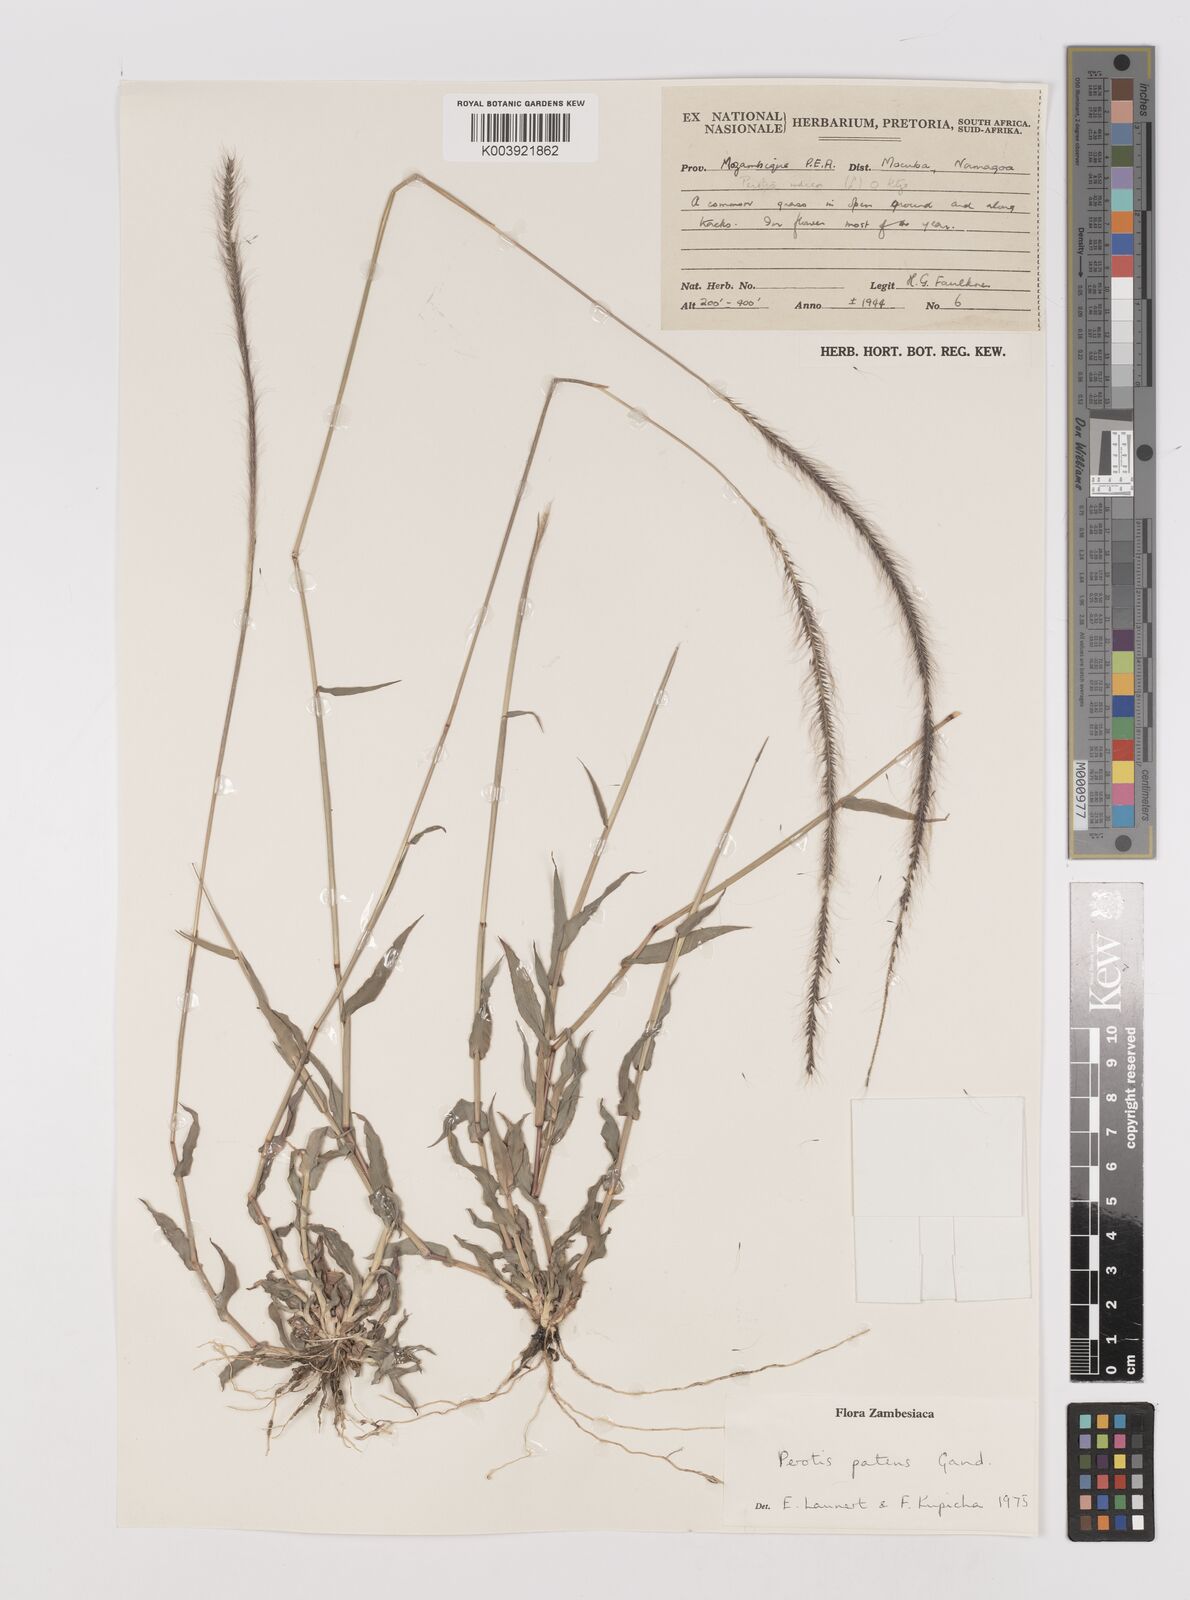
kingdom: Plantae
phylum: Tracheophyta
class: Liliopsida
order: Poales
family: Poaceae
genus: Perotis
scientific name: Perotis patens
